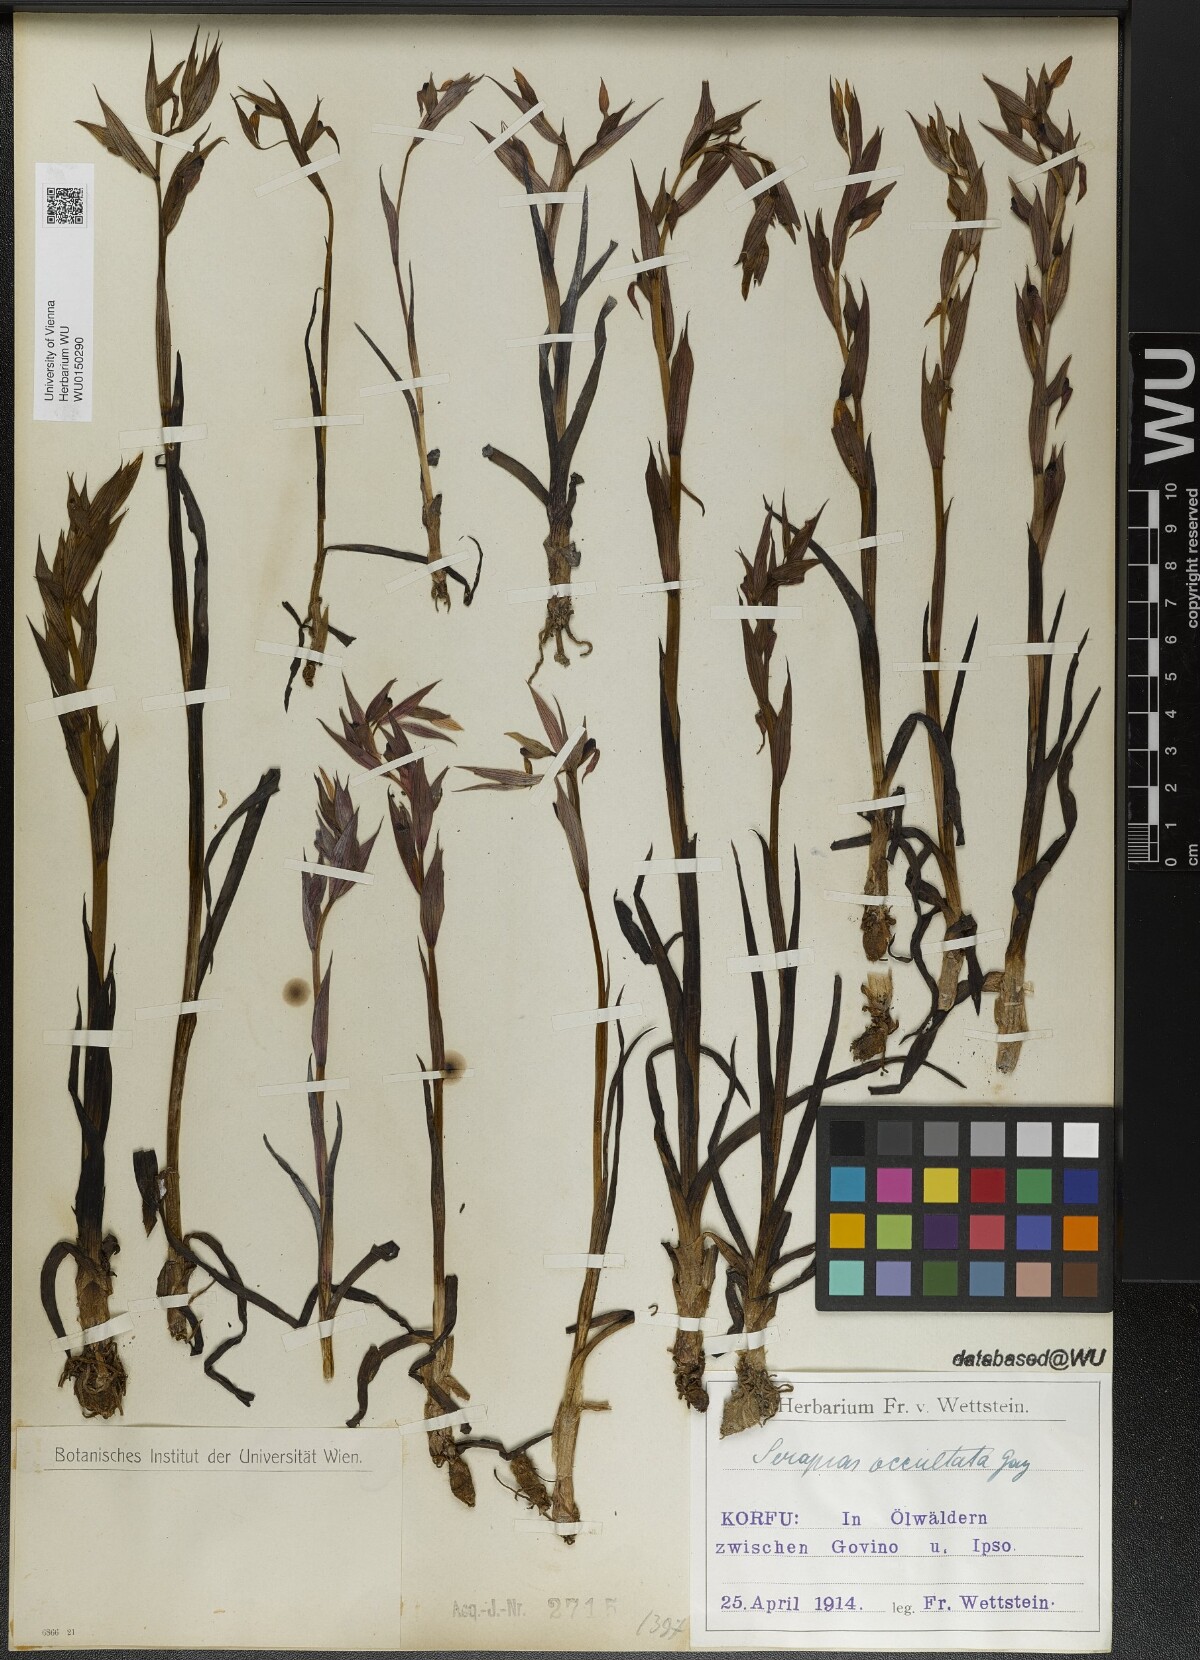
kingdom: Plantae
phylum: Tracheophyta
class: Liliopsida
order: Asparagales
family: Orchidaceae
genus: Serapias
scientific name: Serapias parviflora
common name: Small-flowered tongue-orchid
